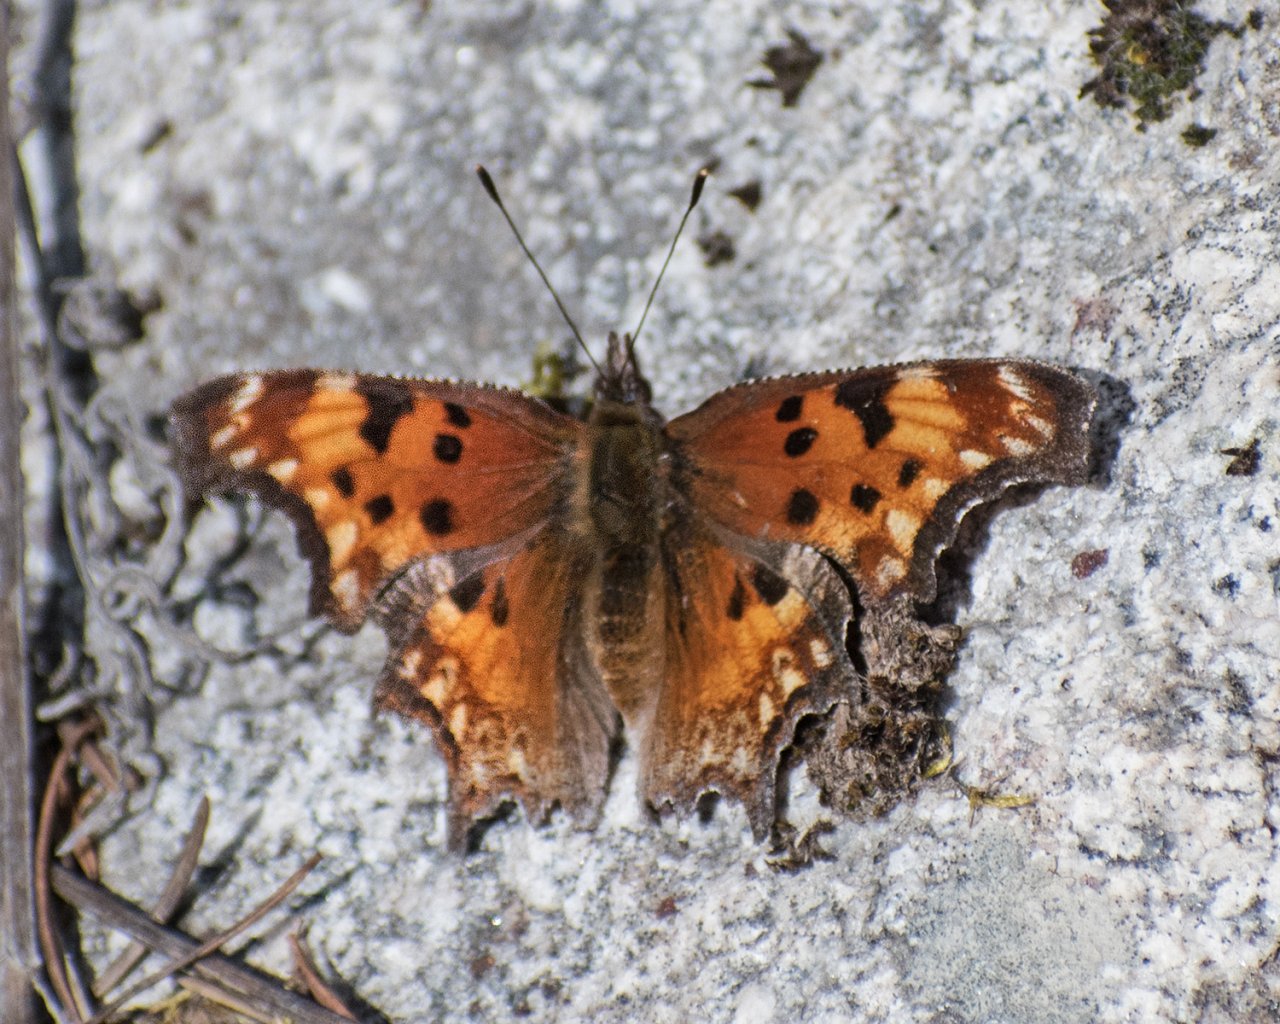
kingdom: Animalia
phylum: Arthropoda
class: Insecta
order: Lepidoptera
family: Nymphalidae
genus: Polygonia
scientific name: Polygonia gracilis
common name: Hoary Comma
